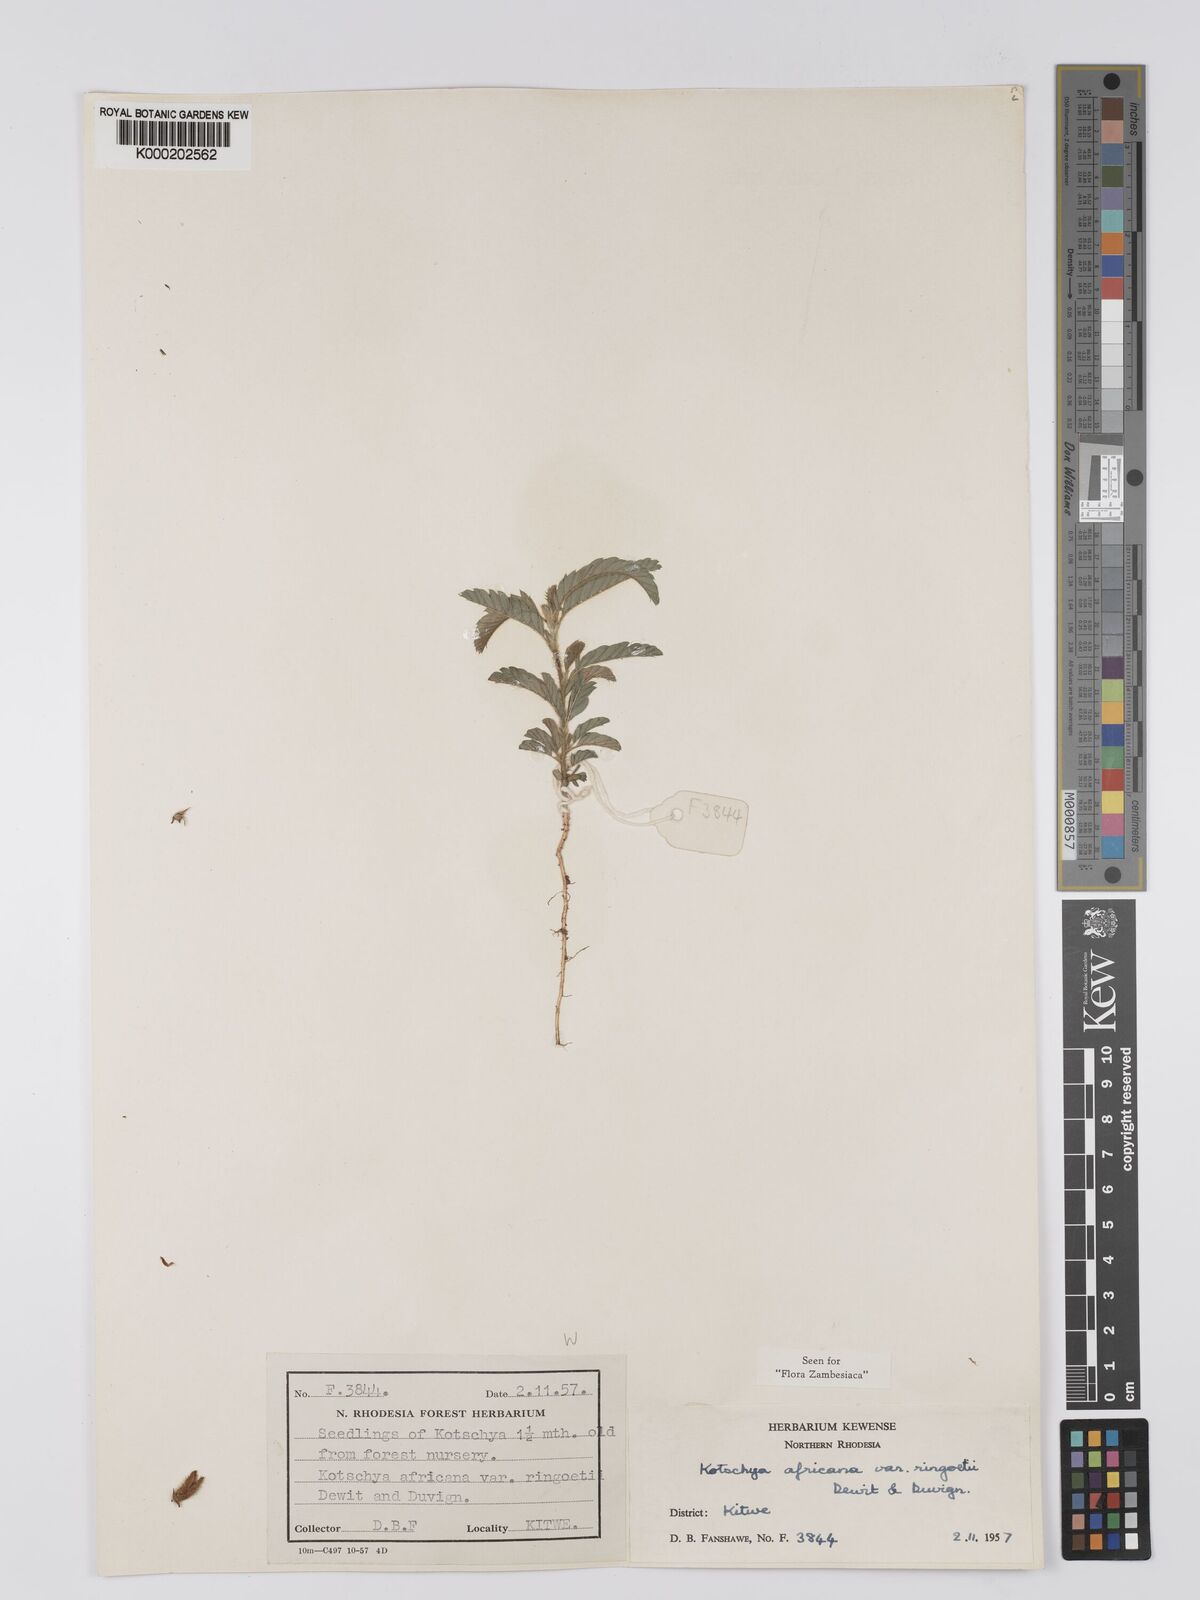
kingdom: Plantae
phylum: Tracheophyta
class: Magnoliopsida
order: Fabales
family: Fabaceae
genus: Kotschya
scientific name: Kotschya africana
